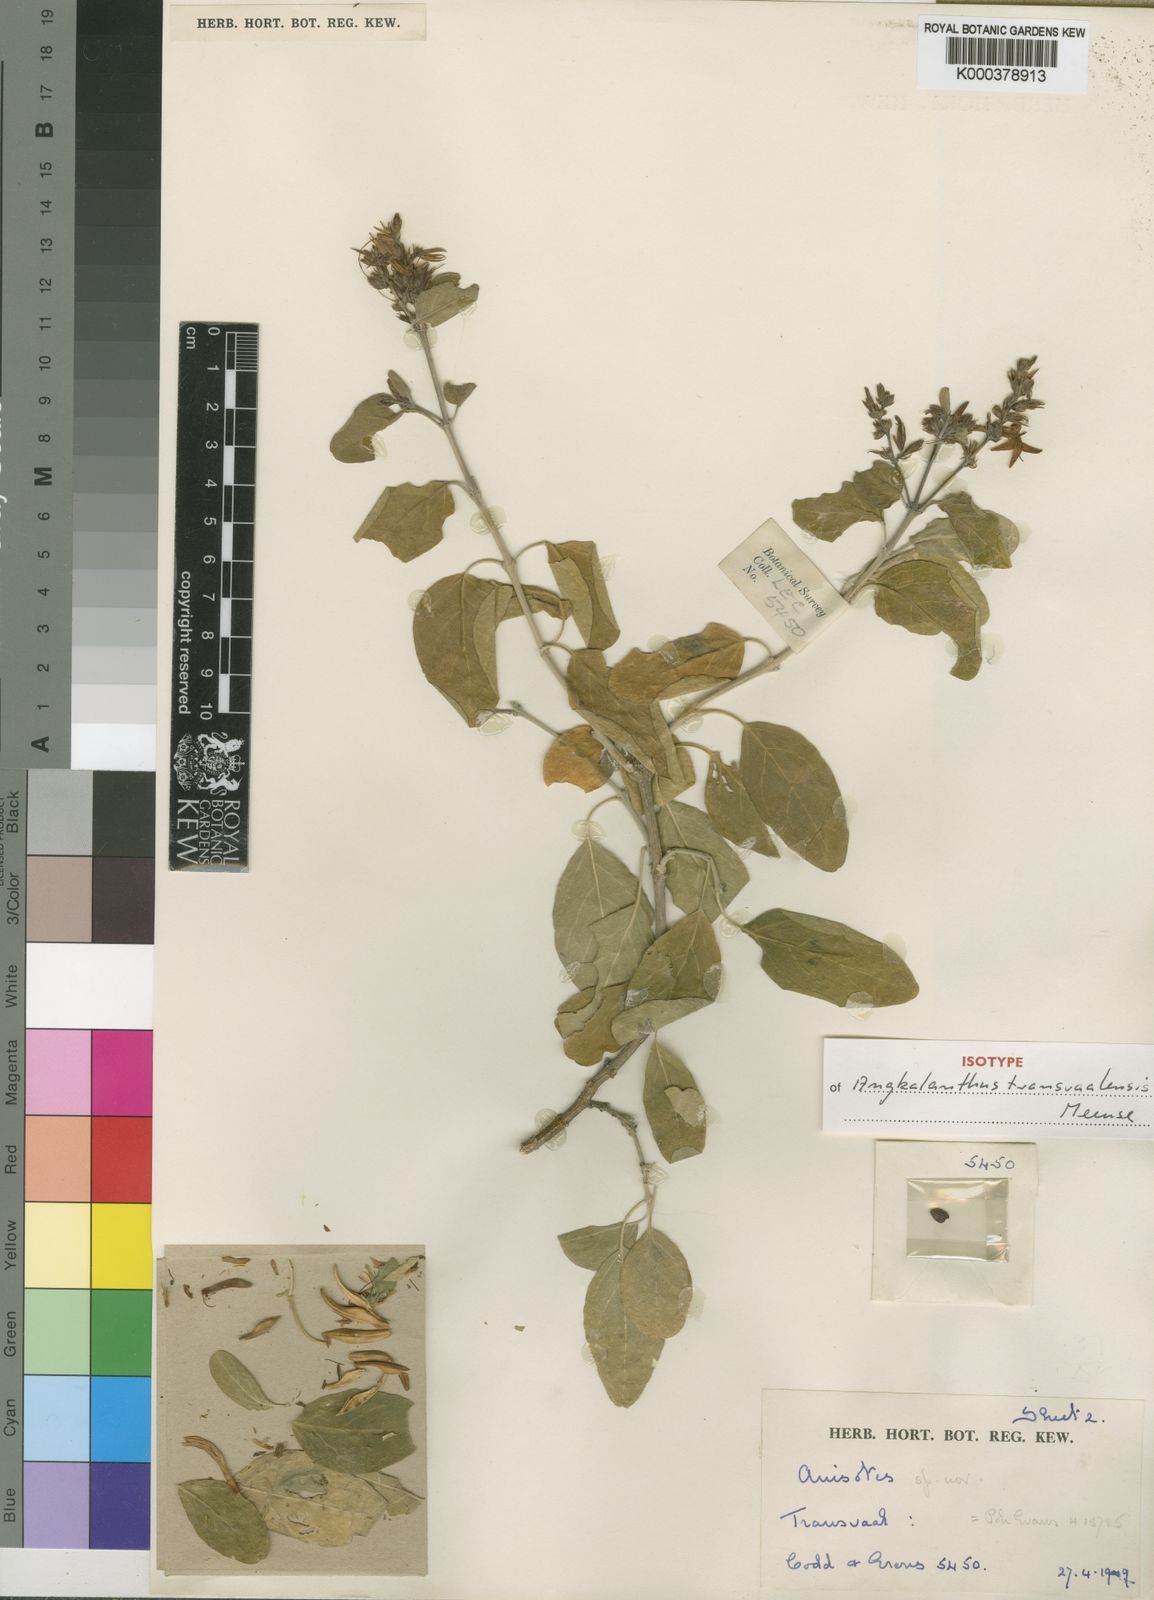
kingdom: Plantae
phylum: Tracheophyta
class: Magnoliopsida
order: Lamiales
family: Acanthaceae
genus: Chorisochora
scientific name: Chorisochora transvaalensis
